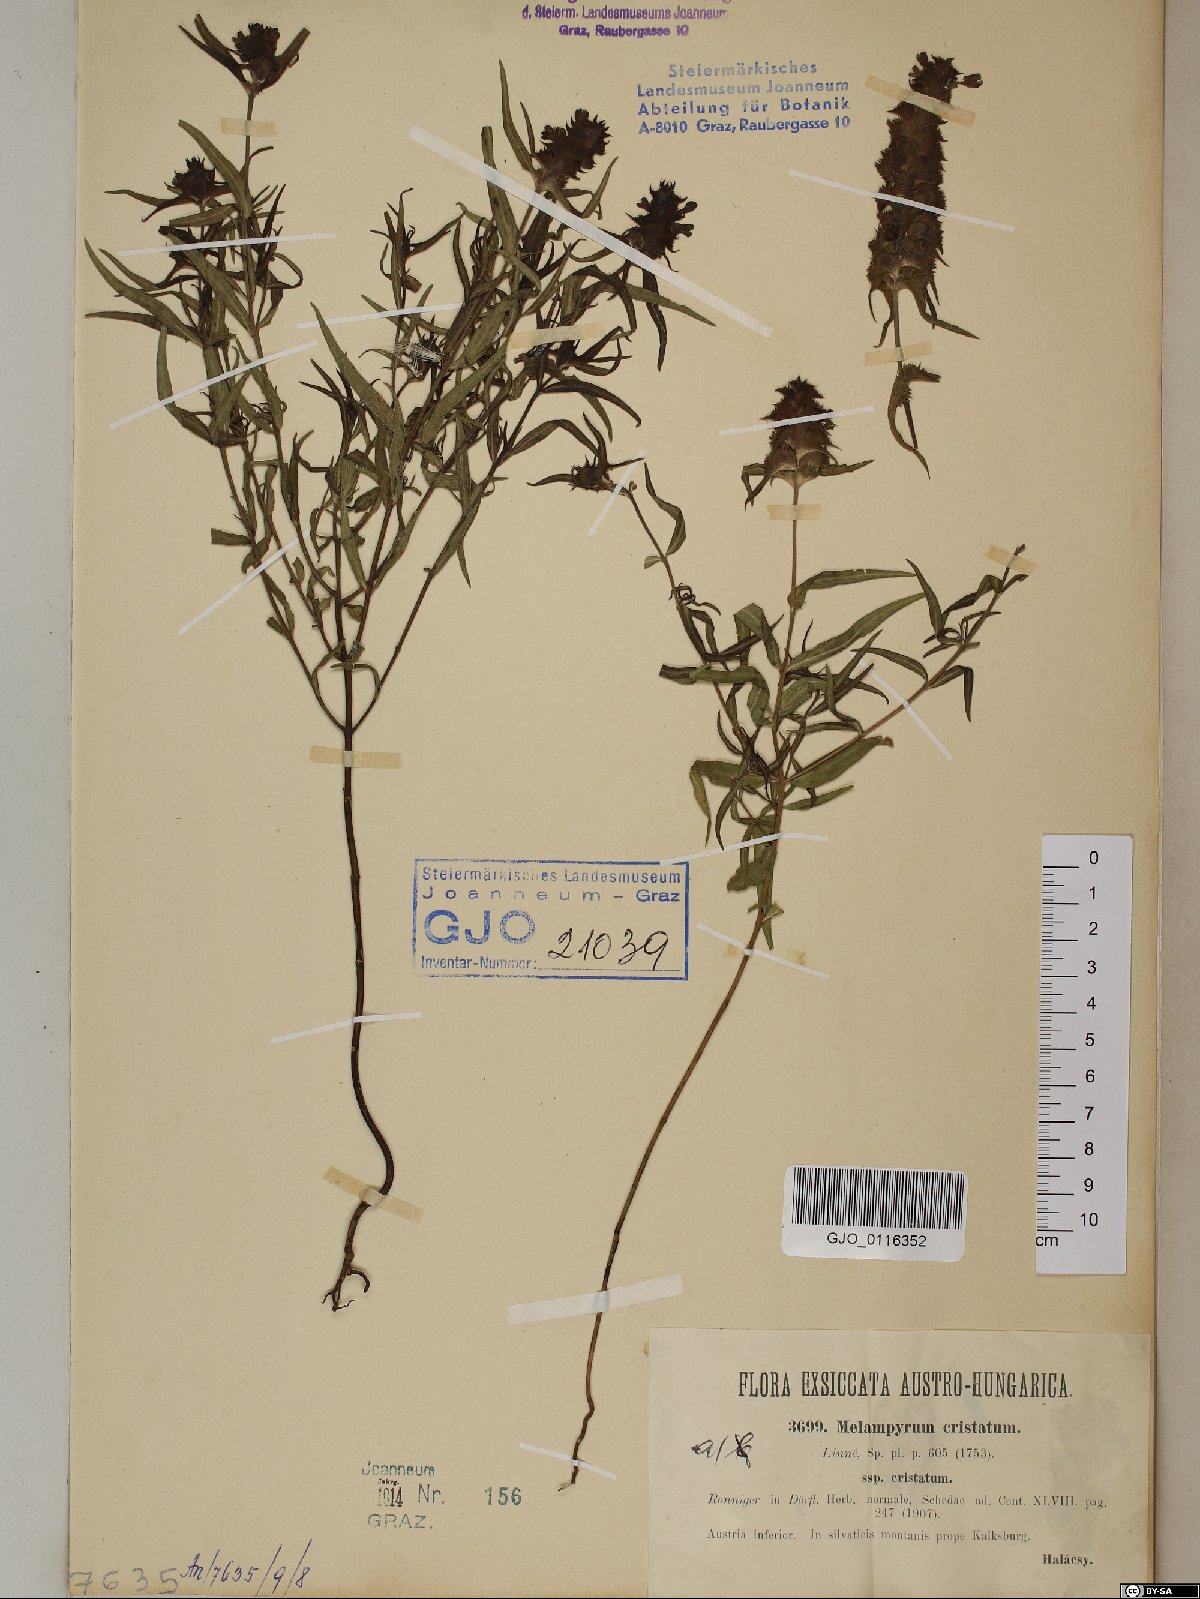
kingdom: Plantae
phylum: Tracheophyta
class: Magnoliopsida
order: Lamiales
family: Orobanchaceae
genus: Melampyrum
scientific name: Melampyrum cristatum
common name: Crested cow-wheat
